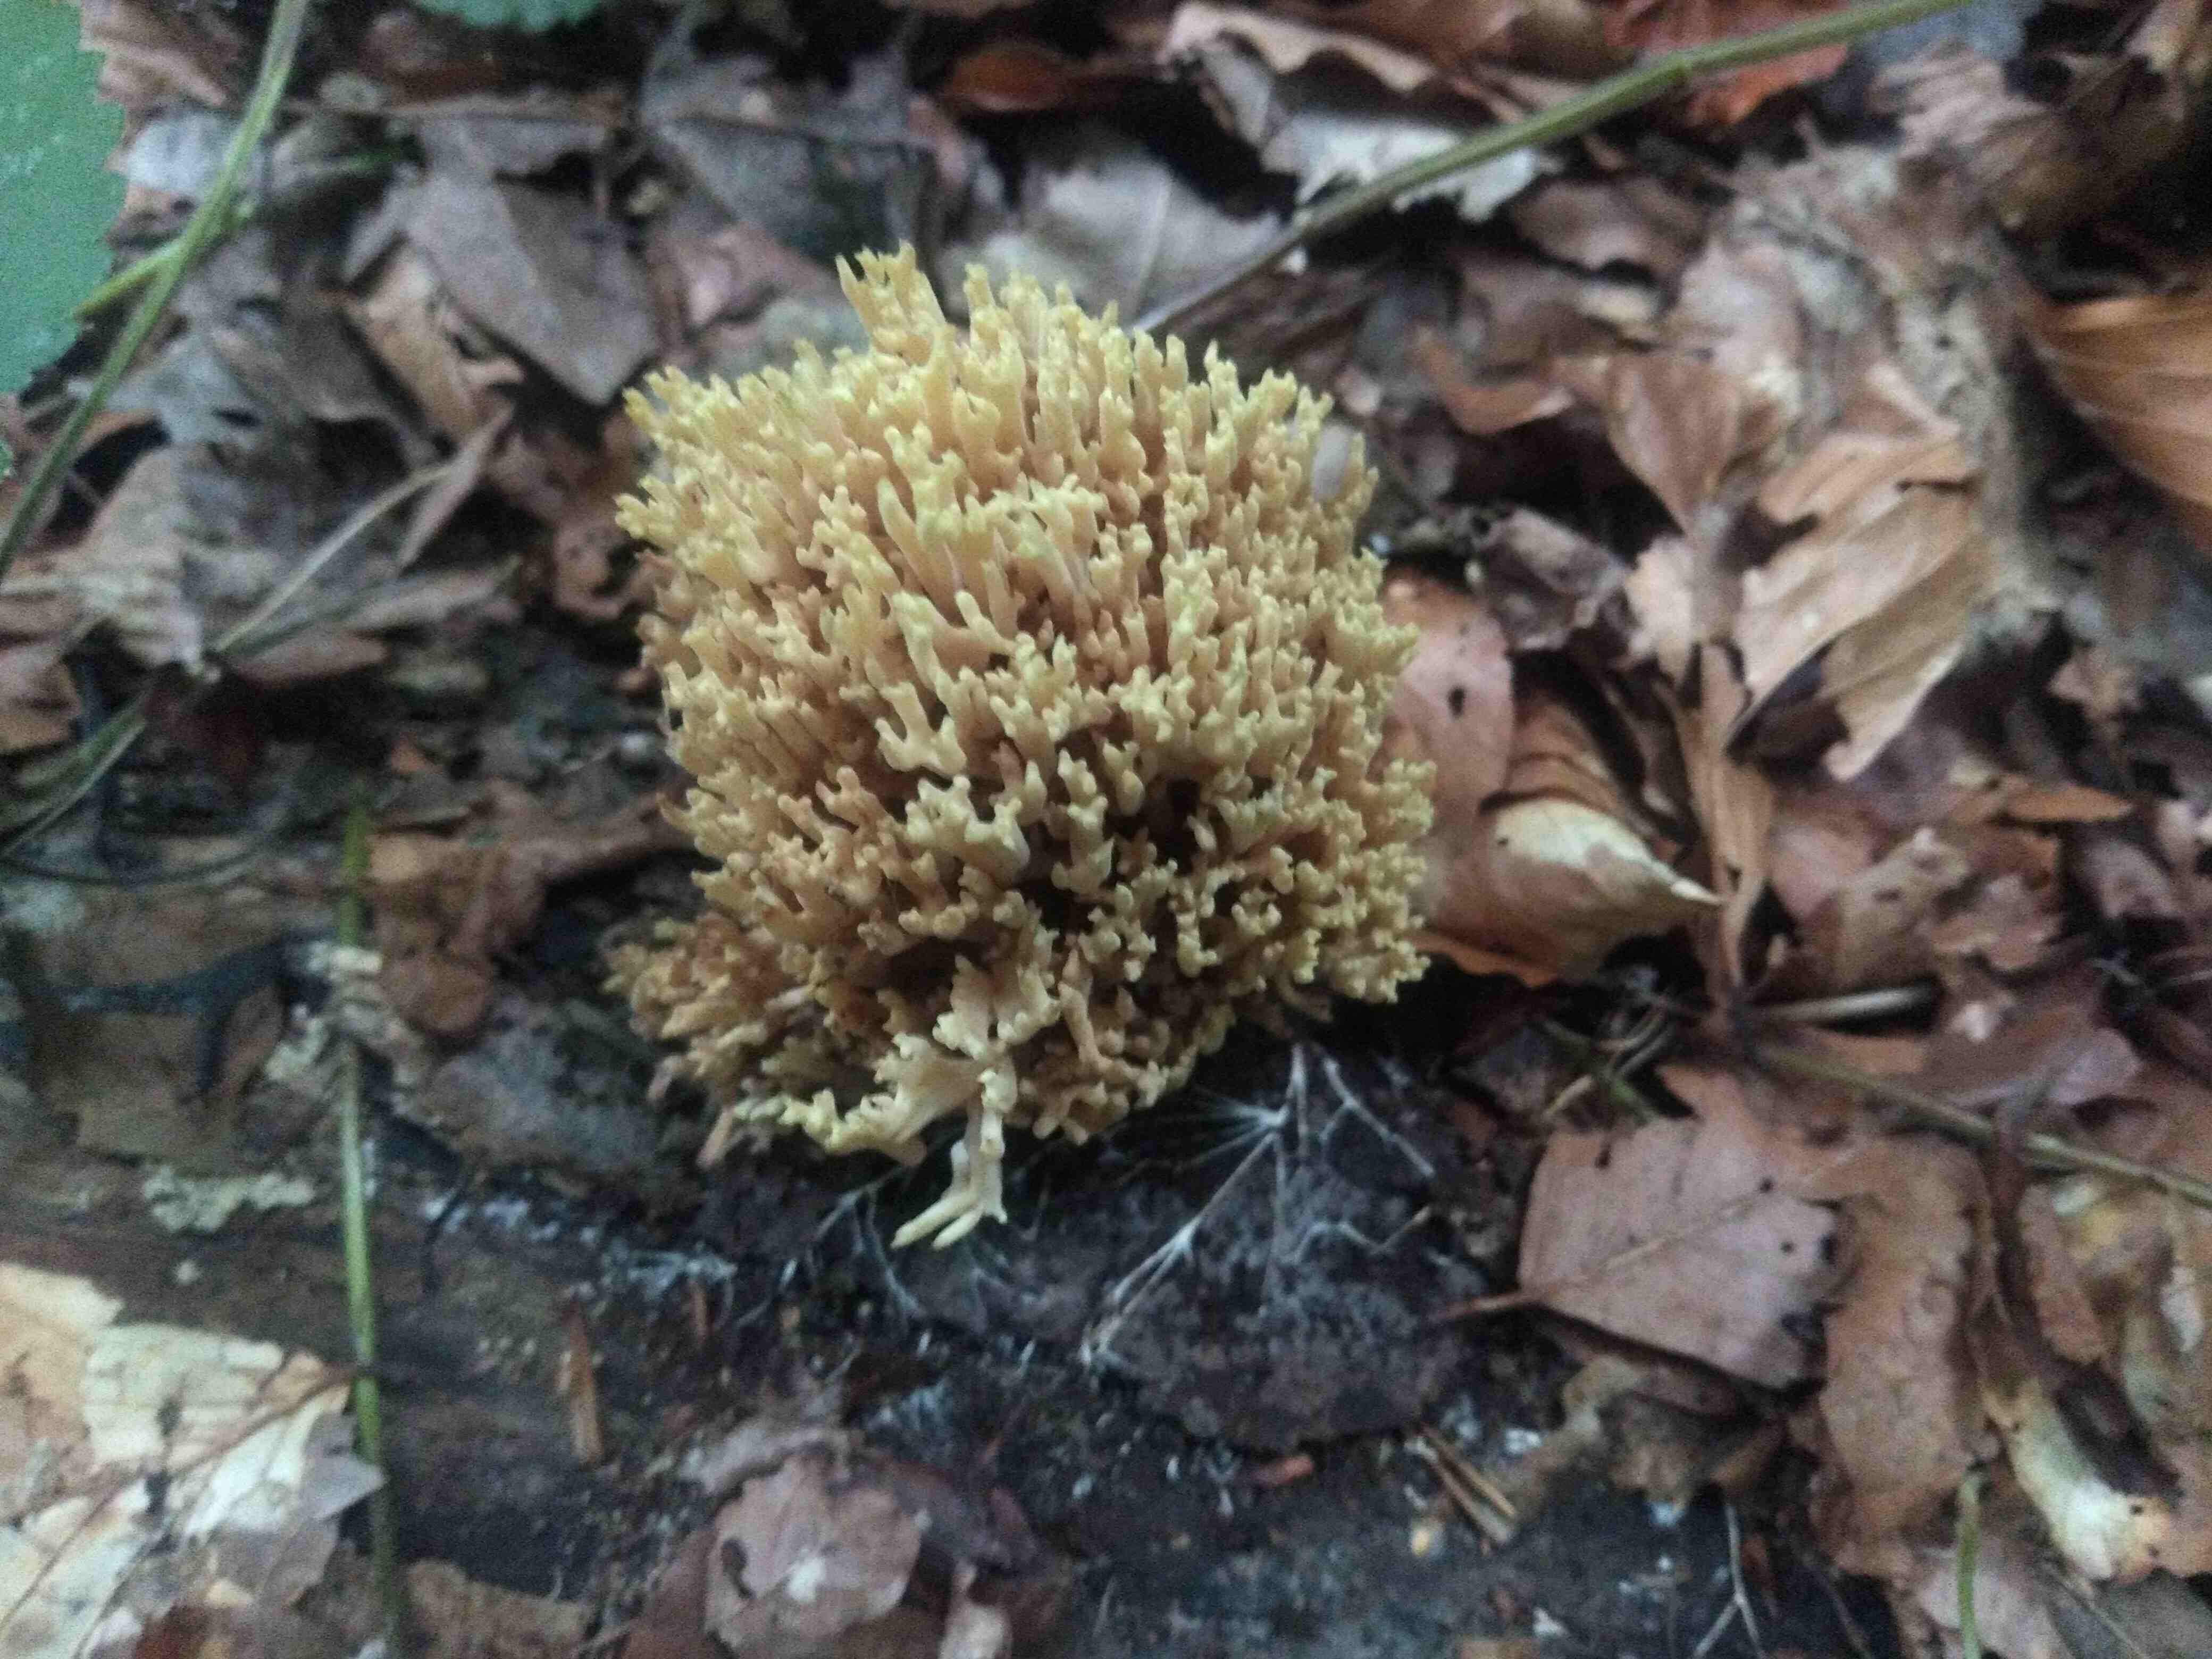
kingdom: Fungi
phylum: Basidiomycota
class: Agaricomycetes
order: Gomphales
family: Gomphaceae
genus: Ramaria
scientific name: Ramaria stricta
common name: rank koralsvamp
